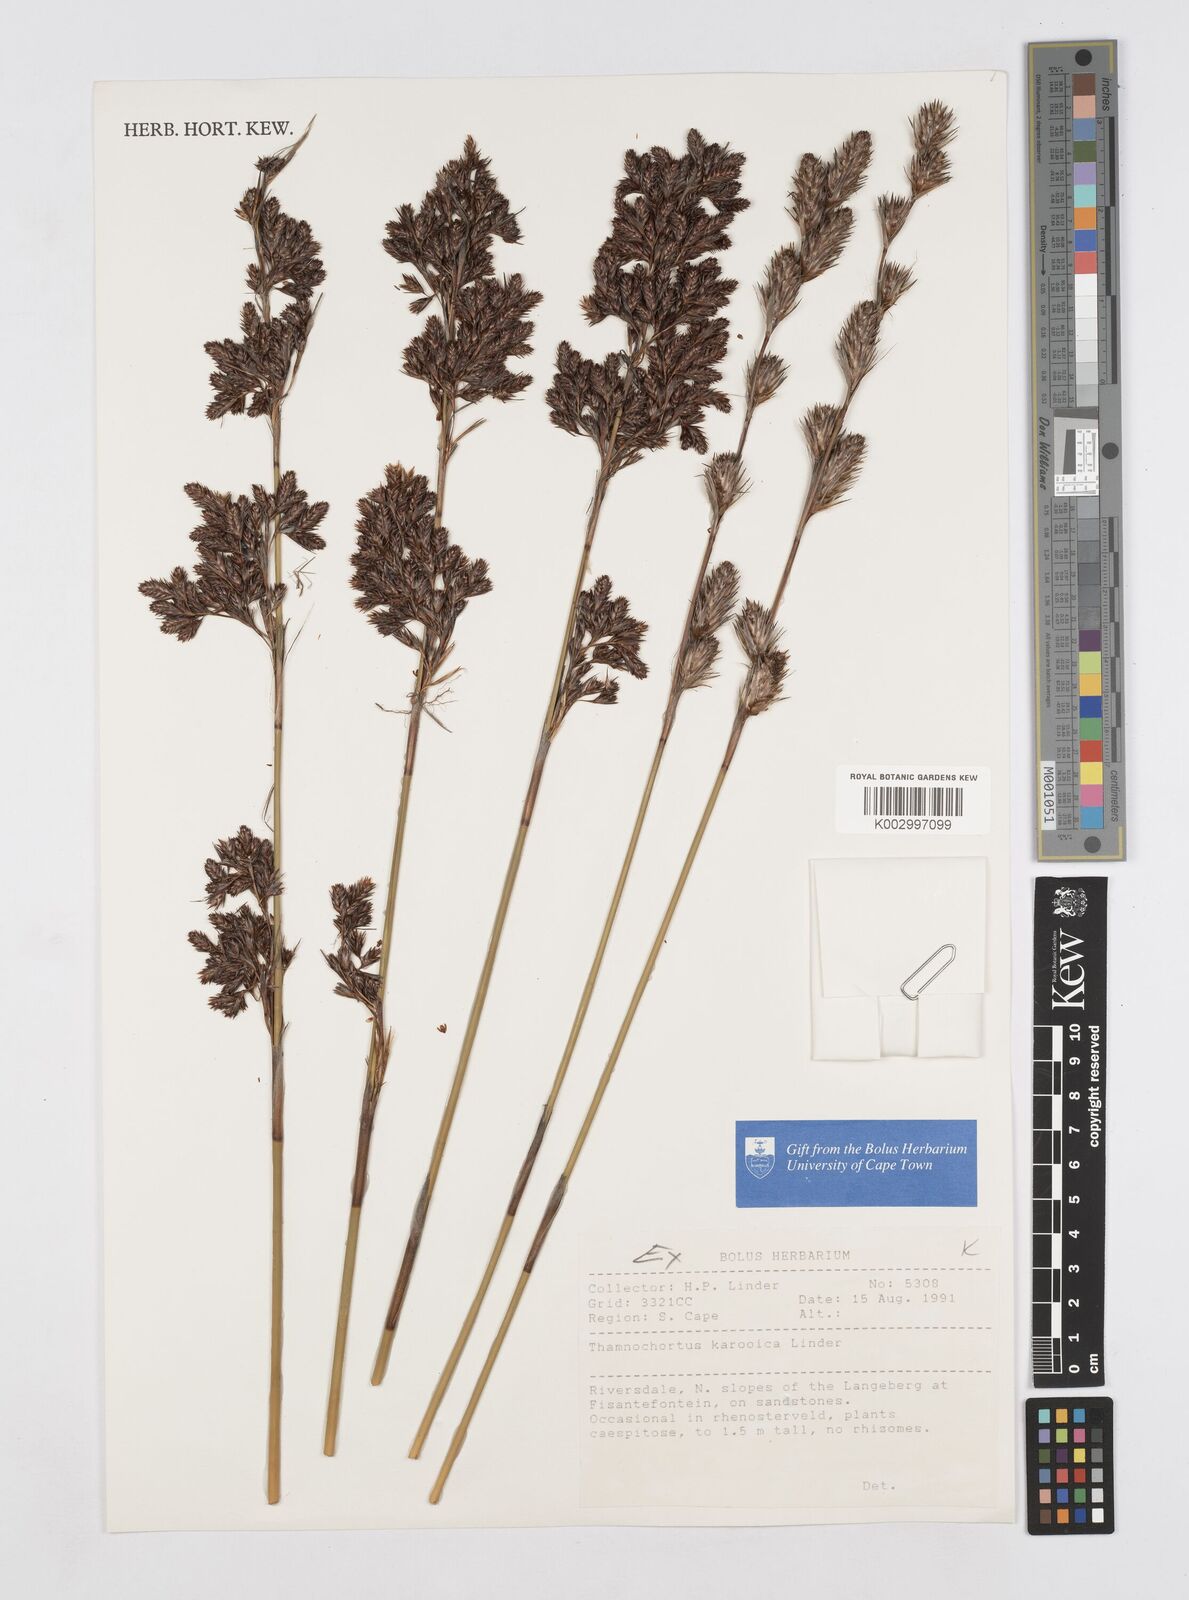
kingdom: Plantae
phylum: Tracheophyta
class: Liliopsida
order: Poales
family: Restionaceae
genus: Thamnochortus
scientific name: Thamnochortus karooica
